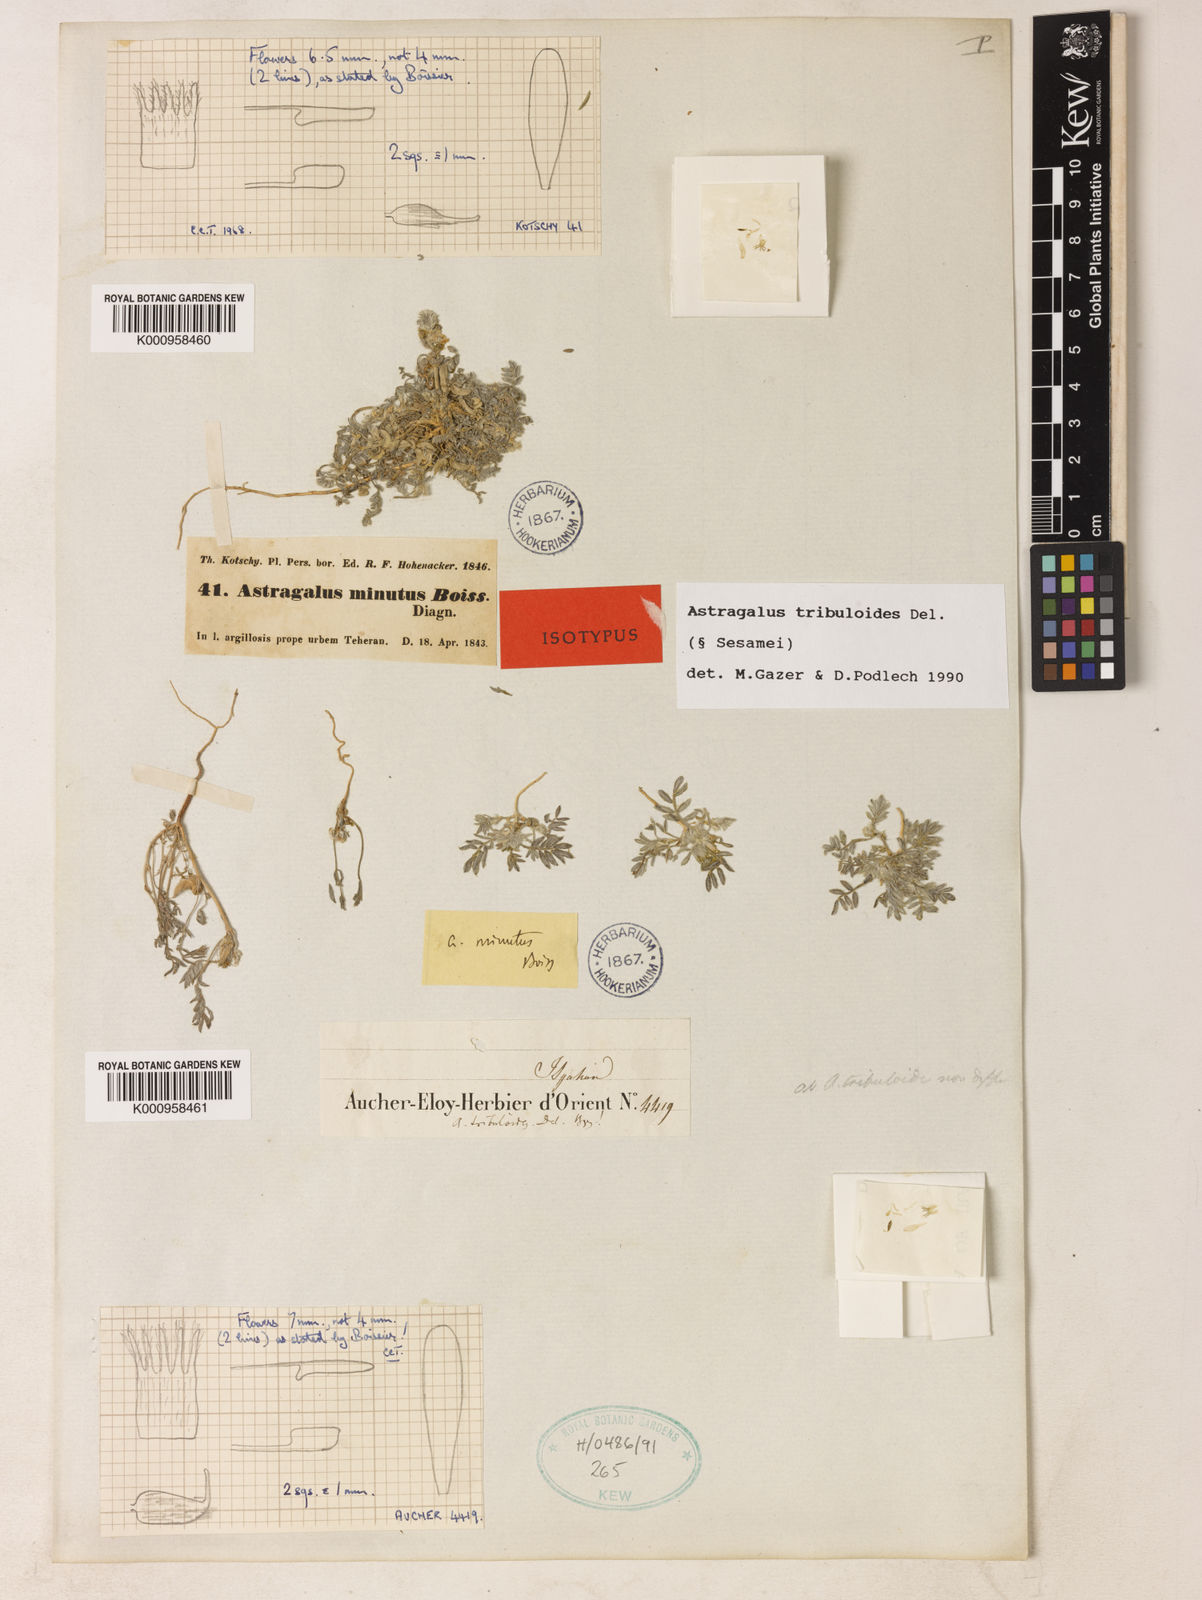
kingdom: Plantae
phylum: Tracheophyta
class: Magnoliopsida
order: Fabales
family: Fabaceae
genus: Astragalus
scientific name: Astragalus tribuloides
